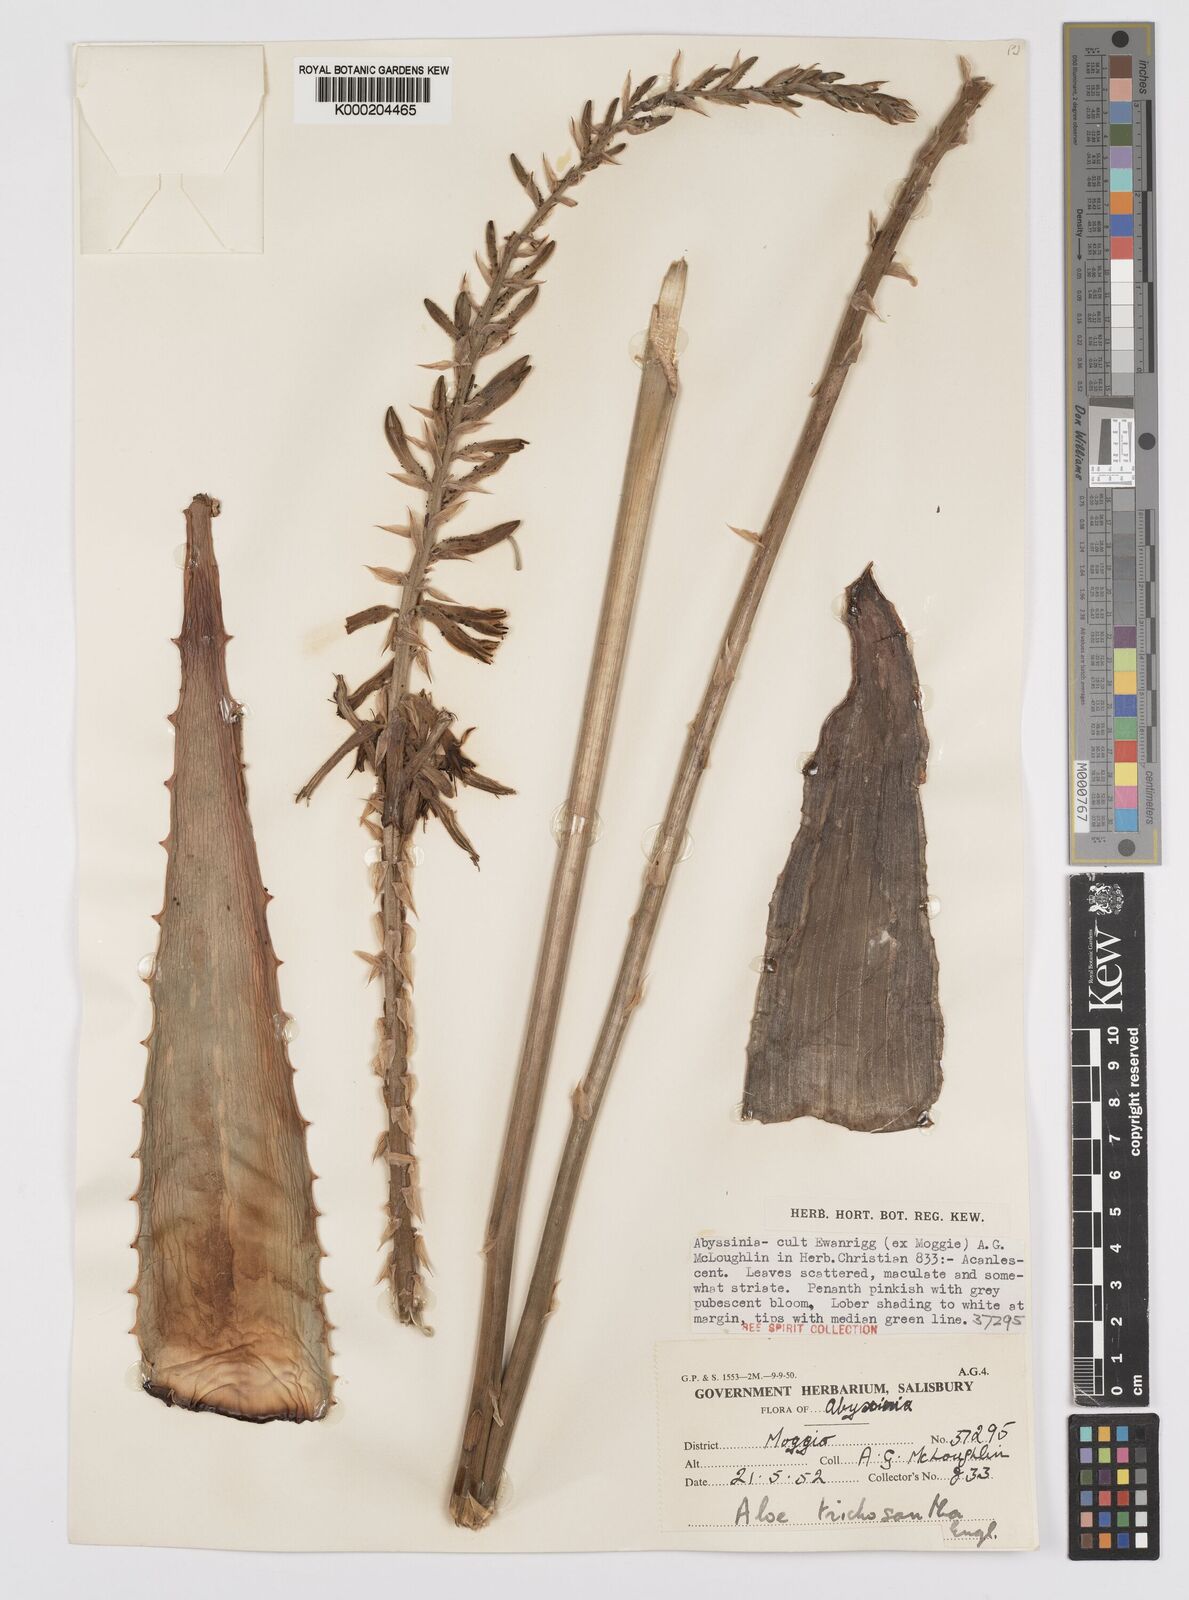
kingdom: Plantae
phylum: Tracheophyta
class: Liliopsida
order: Asparagales
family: Asphodelaceae
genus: Aloe
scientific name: Aloe trichosantha
